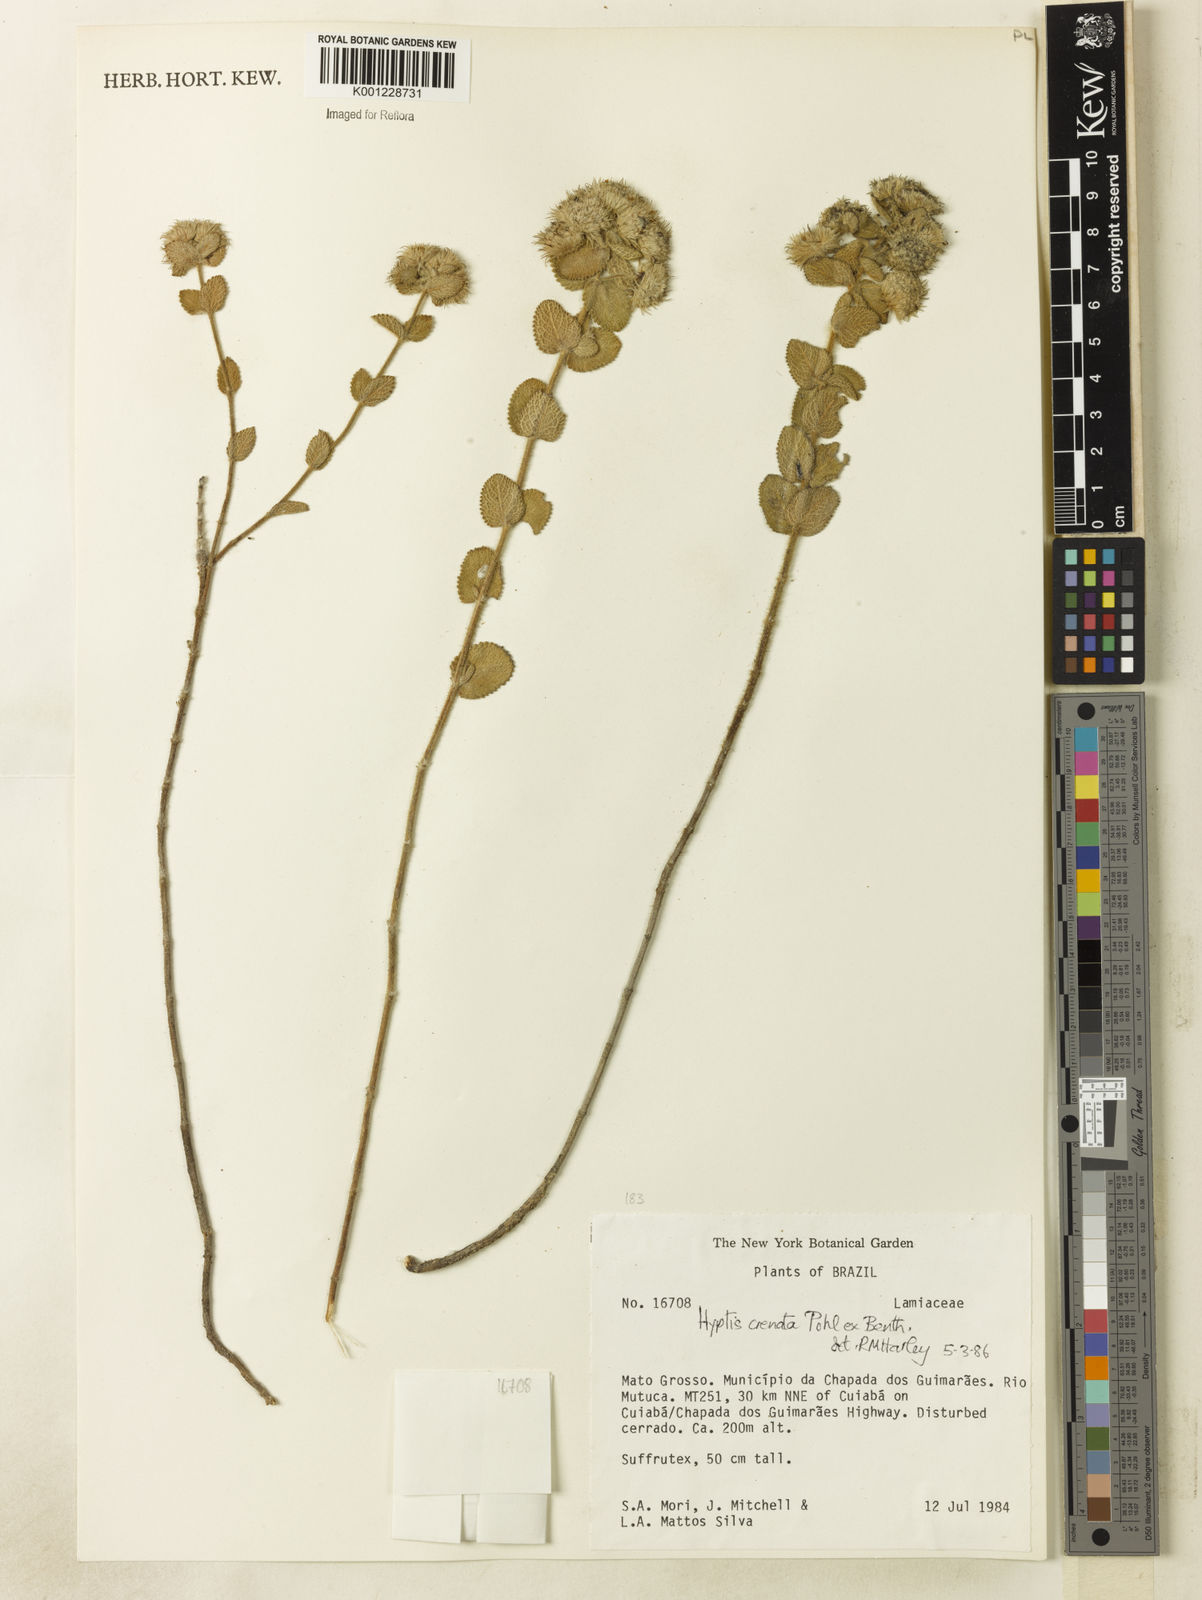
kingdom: Plantae
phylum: Tracheophyta
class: Magnoliopsida
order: Lamiales
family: Lamiaceae
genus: Hyptis
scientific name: Hyptis crenata
